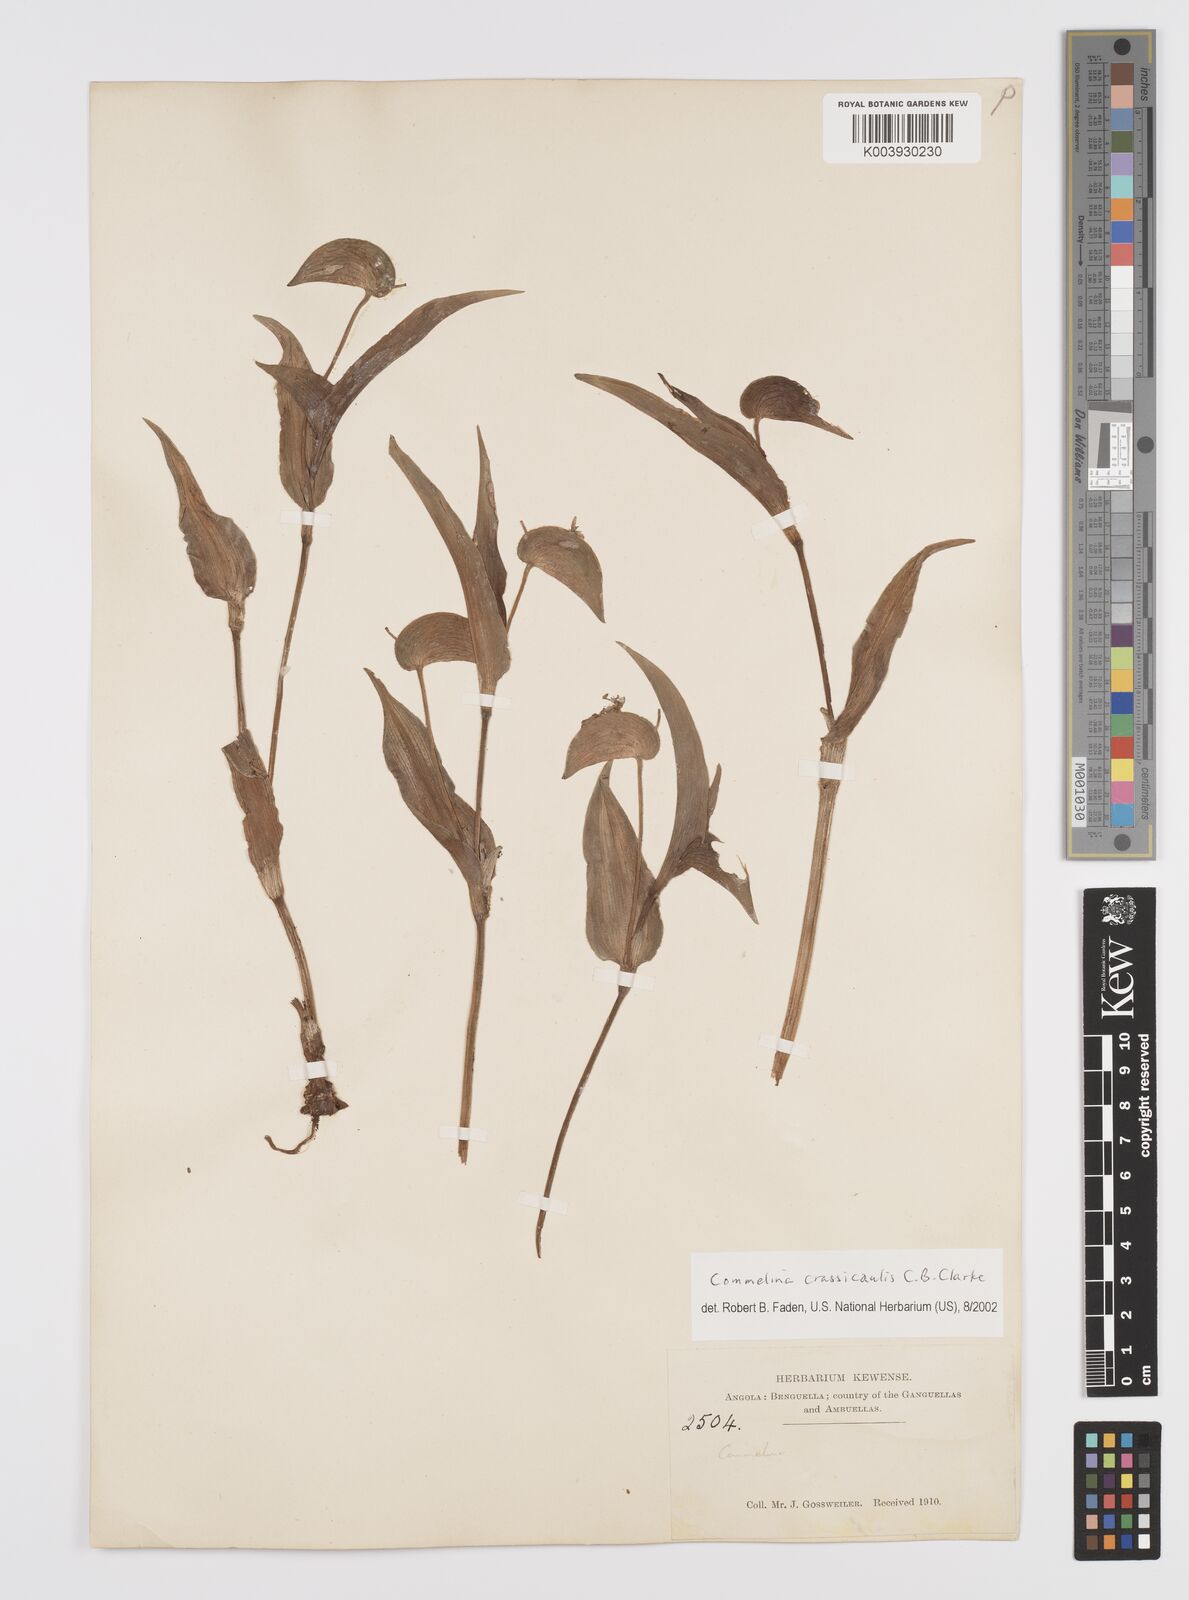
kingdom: Plantae
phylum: Tracheophyta
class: Liliopsida
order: Commelinales
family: Commelinaceae
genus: Commelina
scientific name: Commelina crassicaulis
